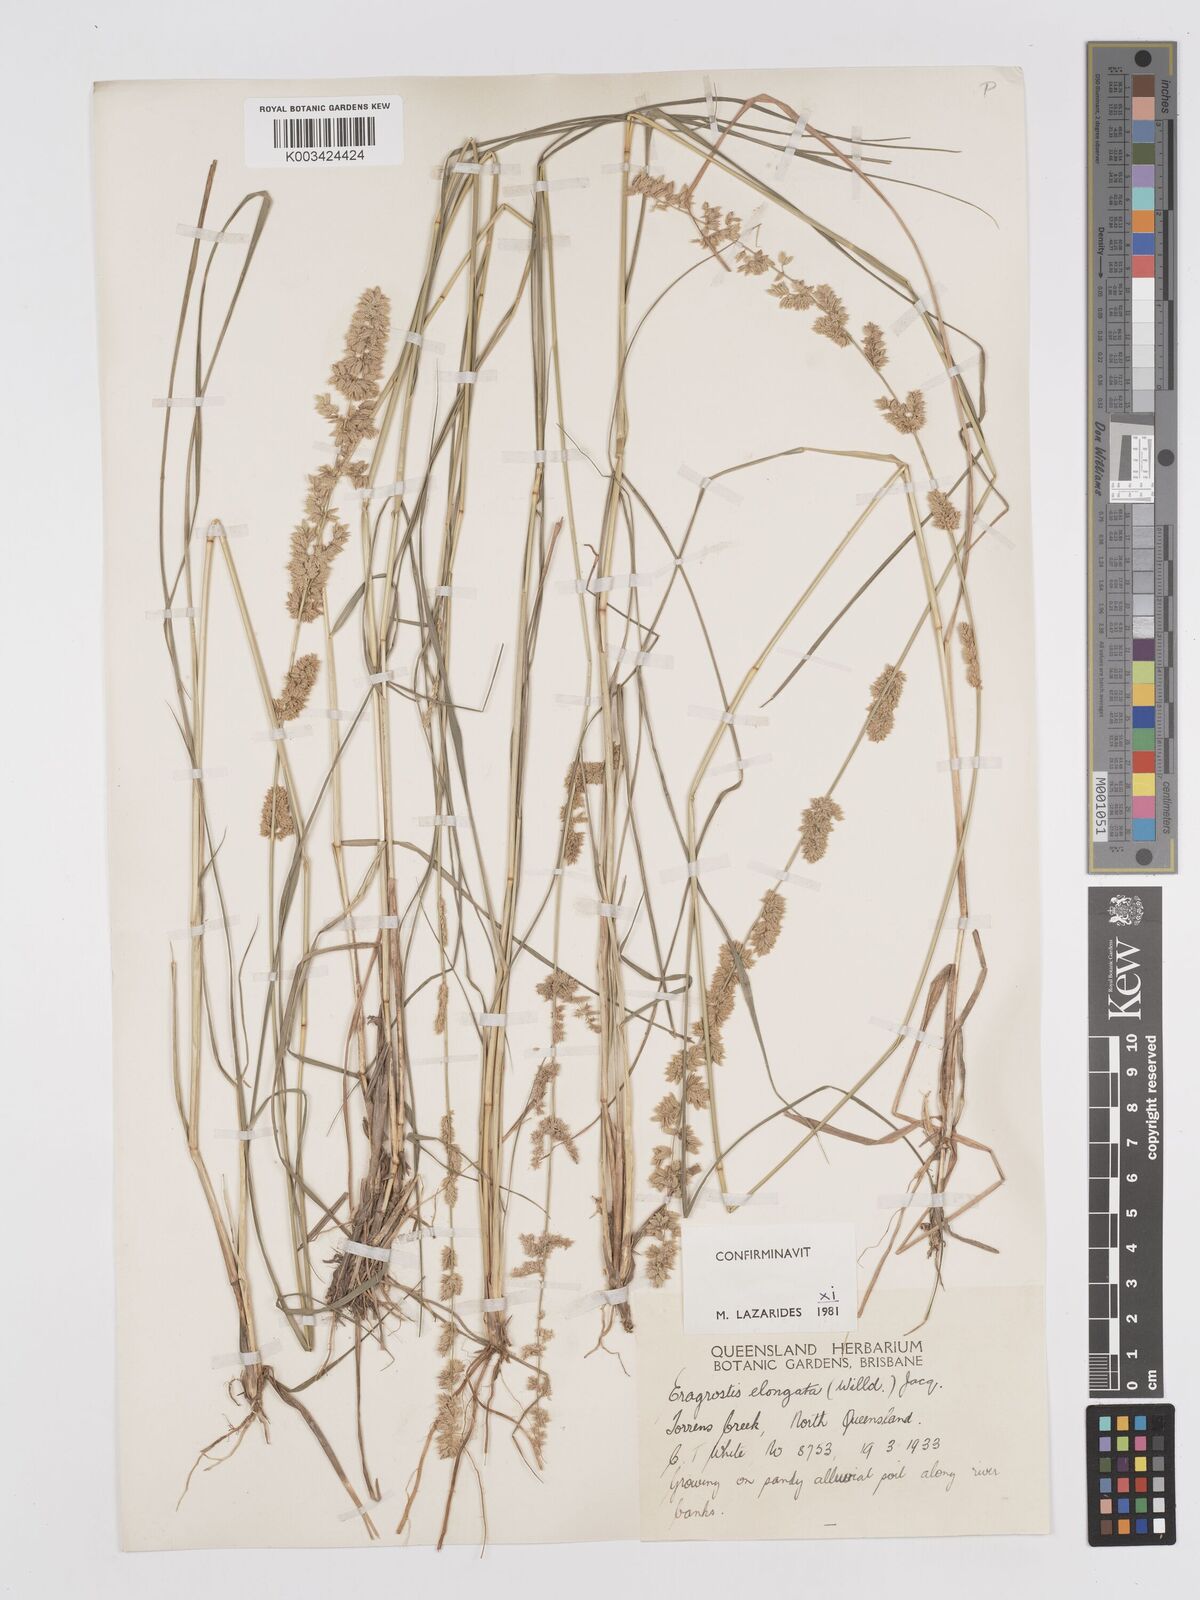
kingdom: Plantae
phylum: Tracheophyta
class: Liliopsida
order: Poales
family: Poaceae
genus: Eragrostis
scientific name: Eragrostis elongata
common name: Long lovegrass
